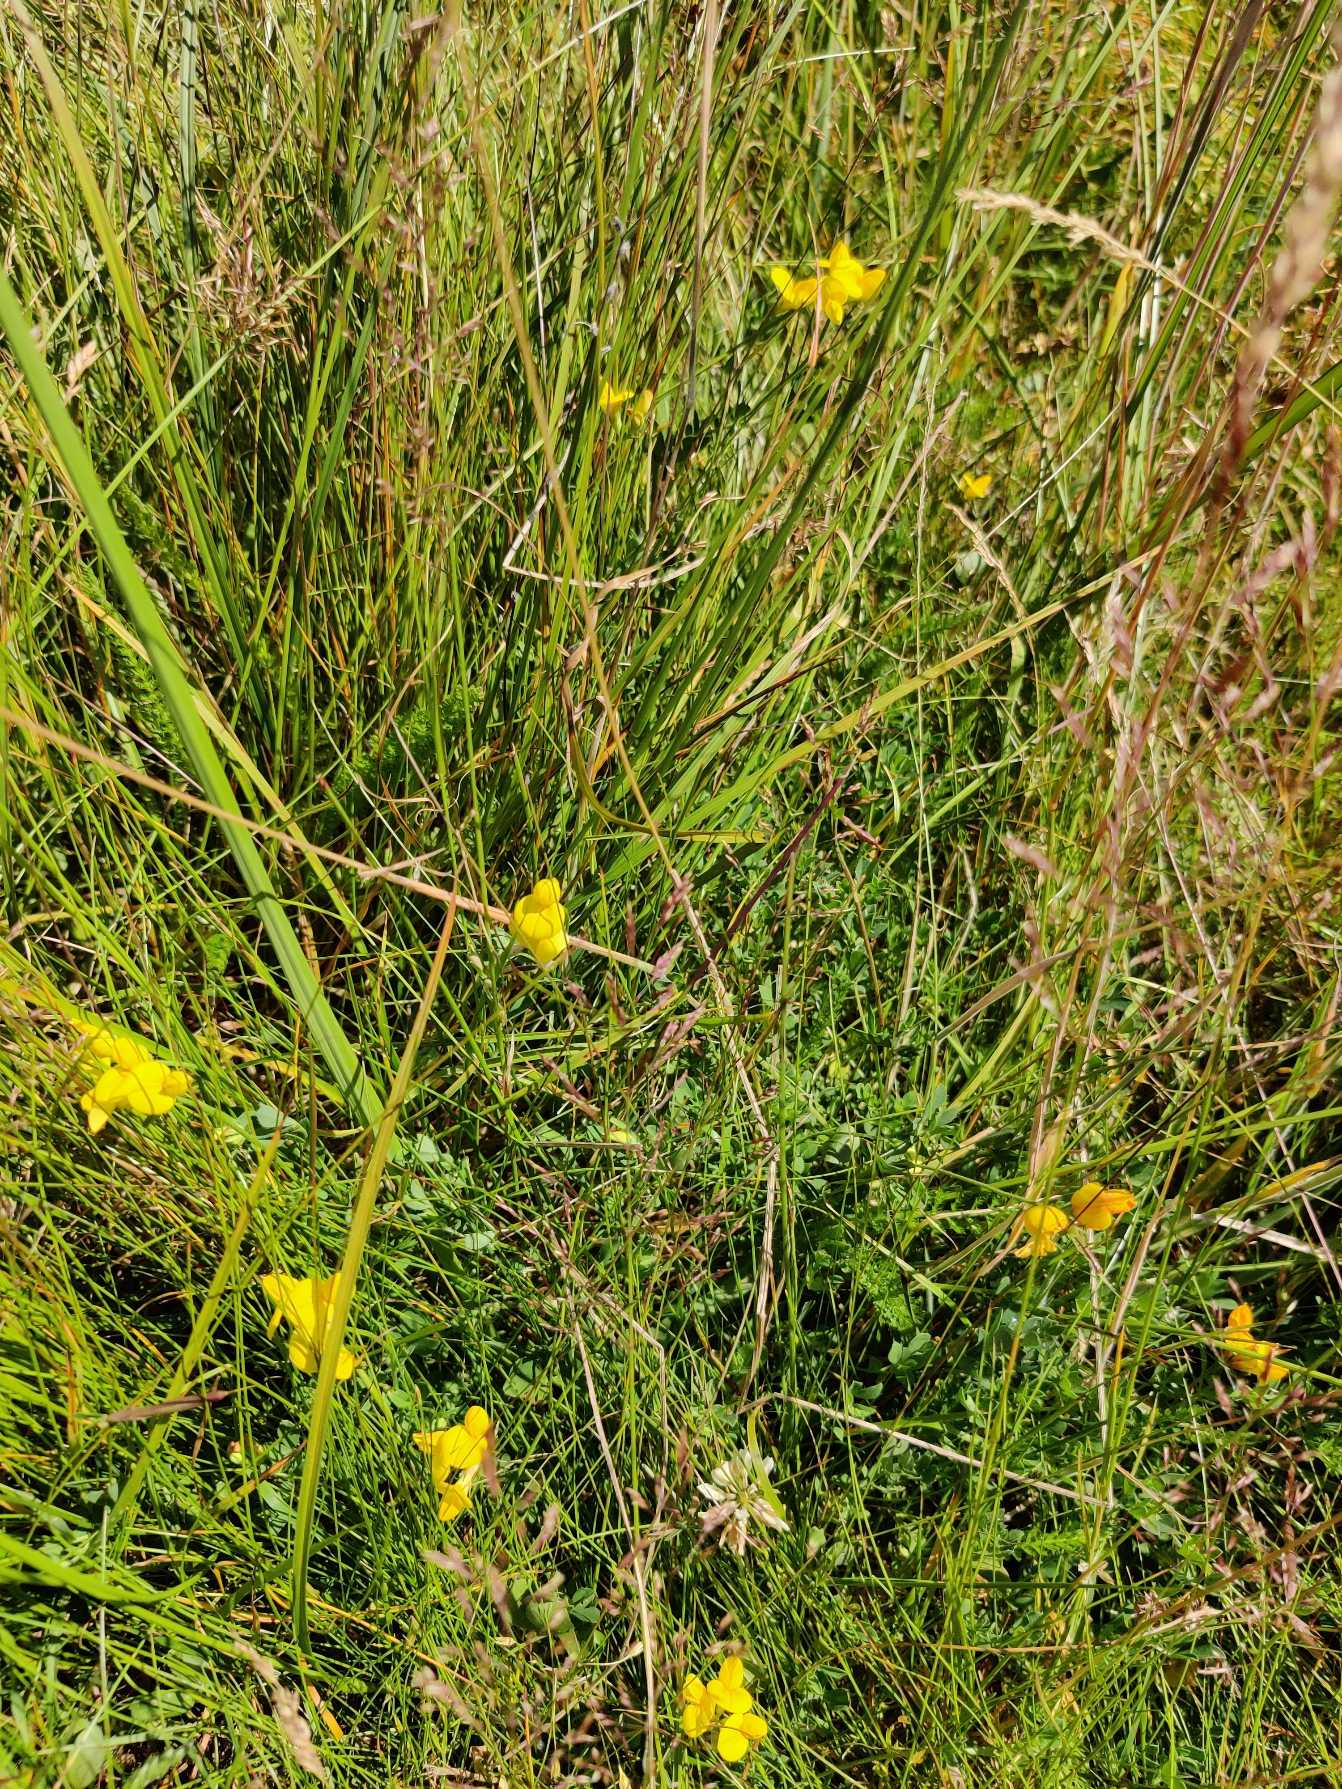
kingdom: Plantae
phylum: Tracheophyta
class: Magnoliopsida
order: Fabales
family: Fabaceae
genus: Lotus
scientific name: Lotus corniculatus
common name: Almindelig kællingetand
